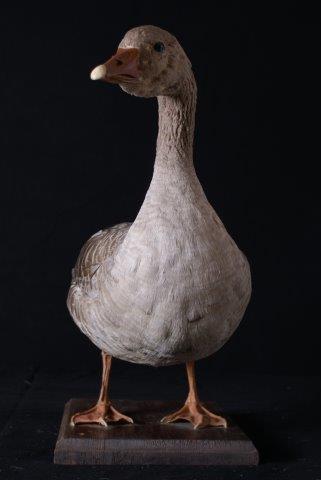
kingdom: Animalia
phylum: Chordata
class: Aves
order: Anseriformes
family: Anatidae
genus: Anser
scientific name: Anser anser
